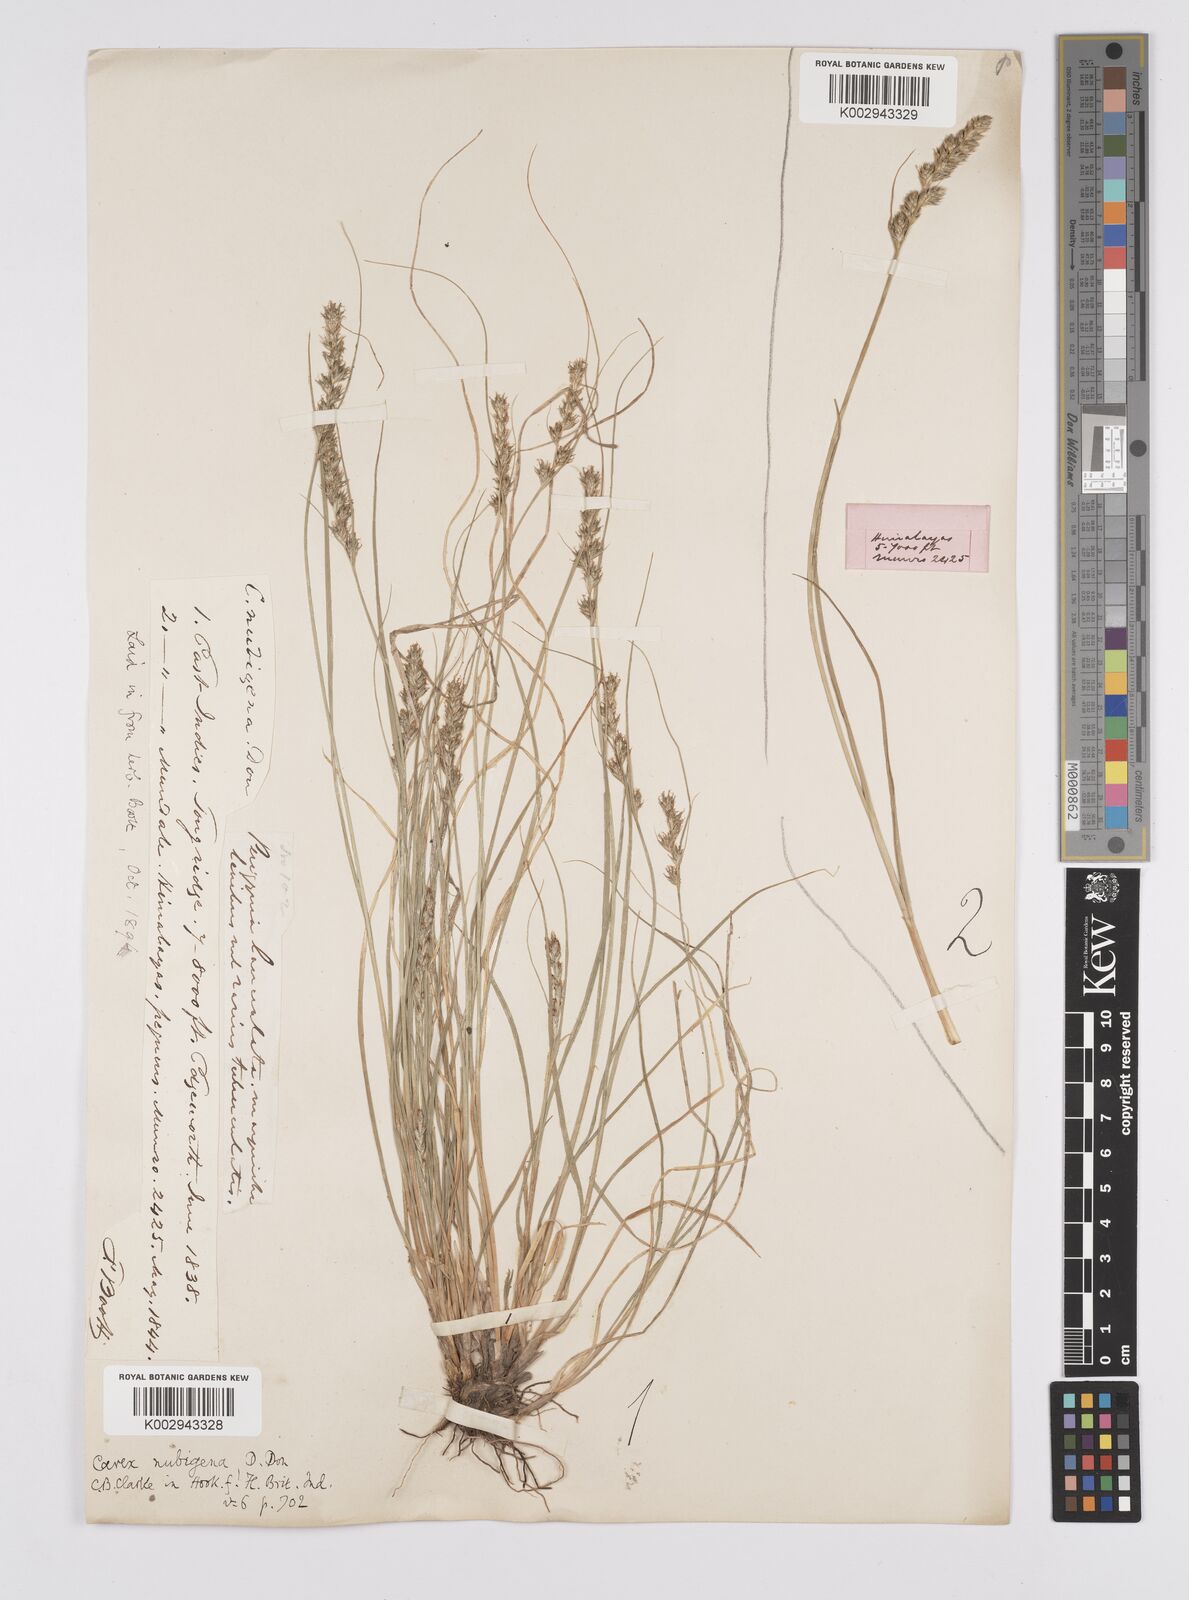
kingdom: Plantae
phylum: Tracheophyta
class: Liliopsida
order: Poales
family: Cyperaceae
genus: Carex
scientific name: Carex nubigena
